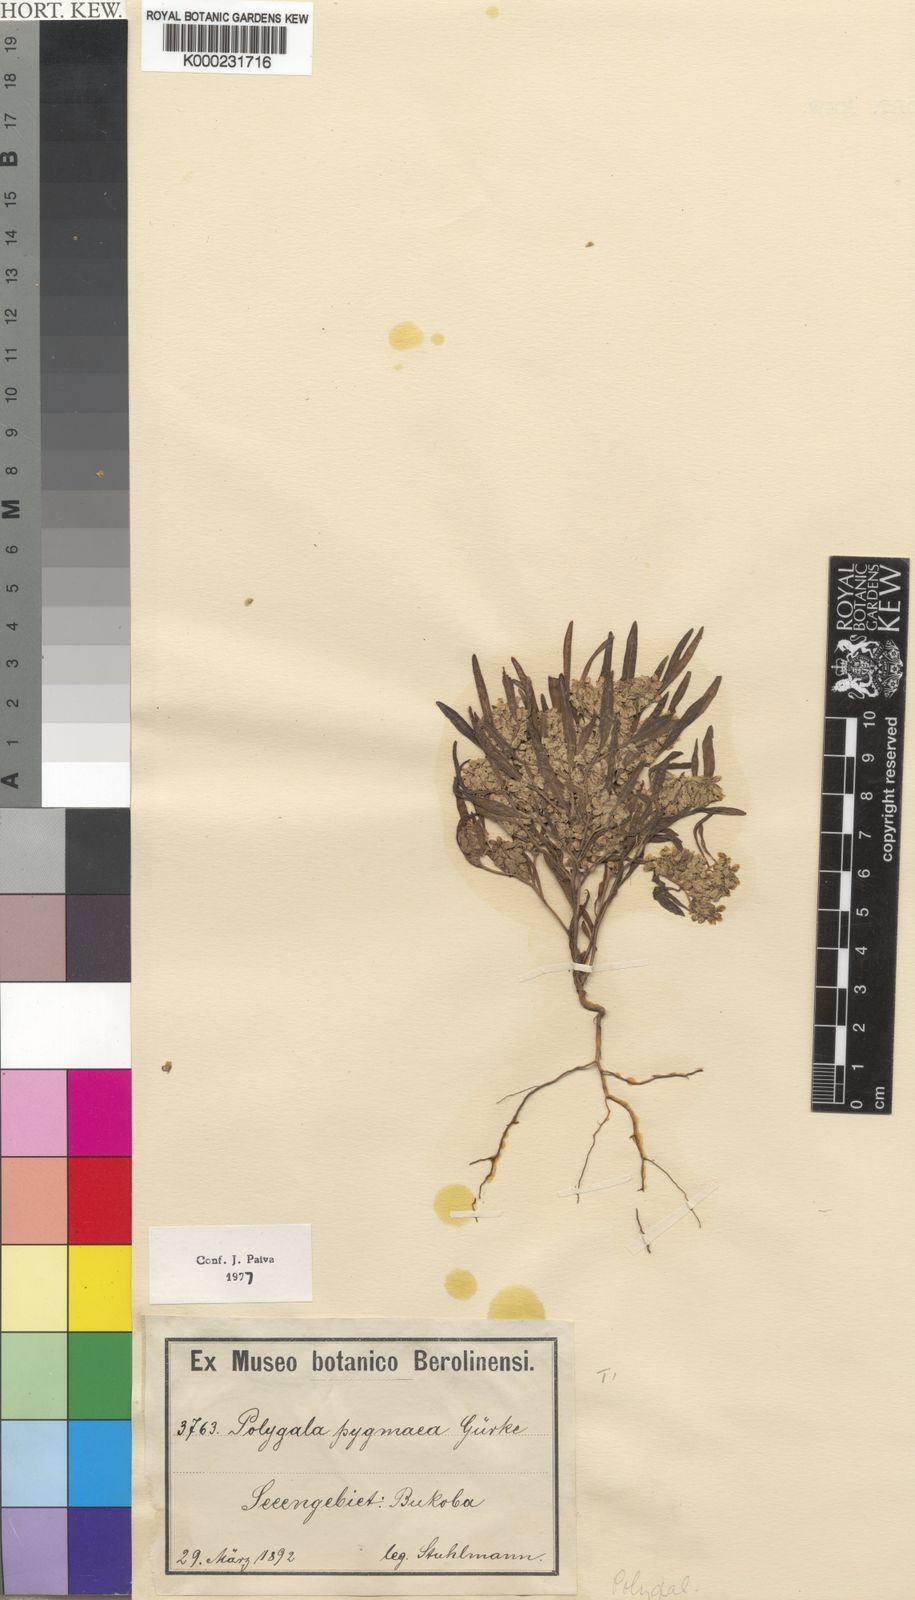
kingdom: Plantae
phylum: Tracheophyta
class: Magnoliopsida
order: Fabales
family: Polygalaceae
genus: Polygala
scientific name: Polygala welwitschii
